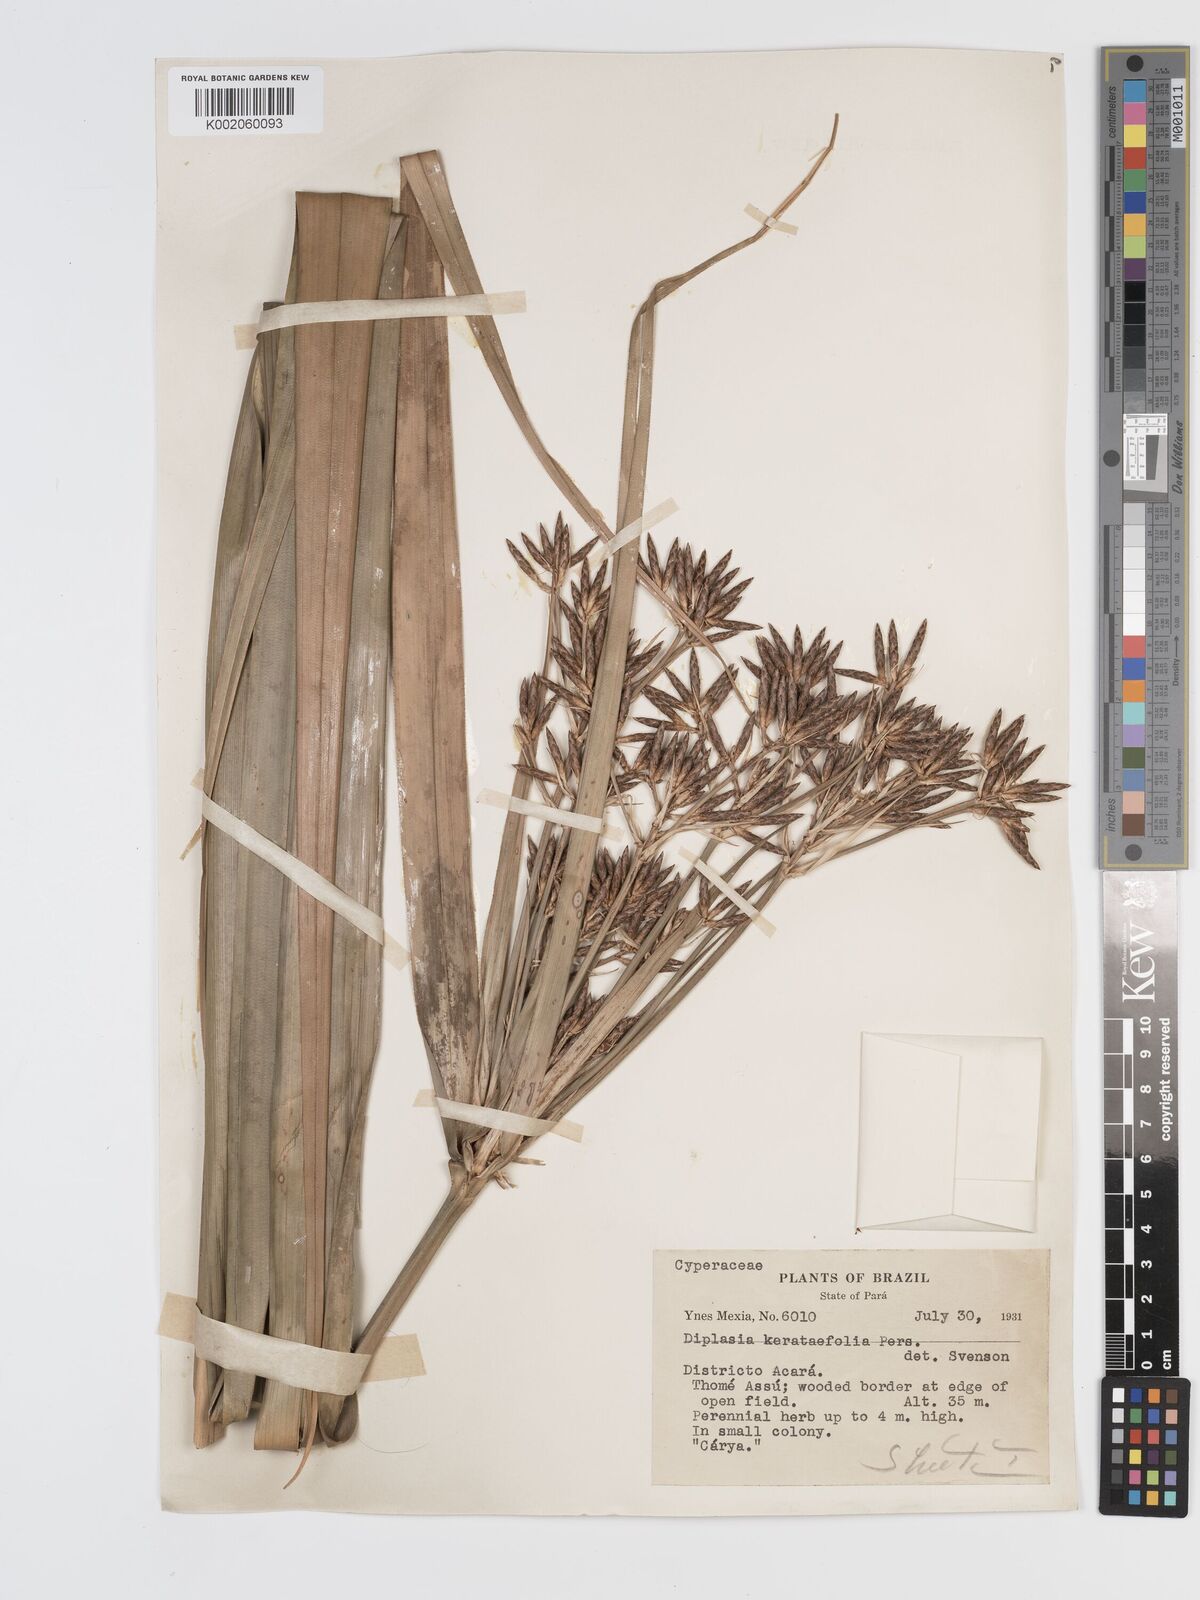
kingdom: Plantae
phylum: Tracheophyta
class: Liliopsida
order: Poales
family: Cyperaceae
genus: Diplasia
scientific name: Diplasia karatifolia
